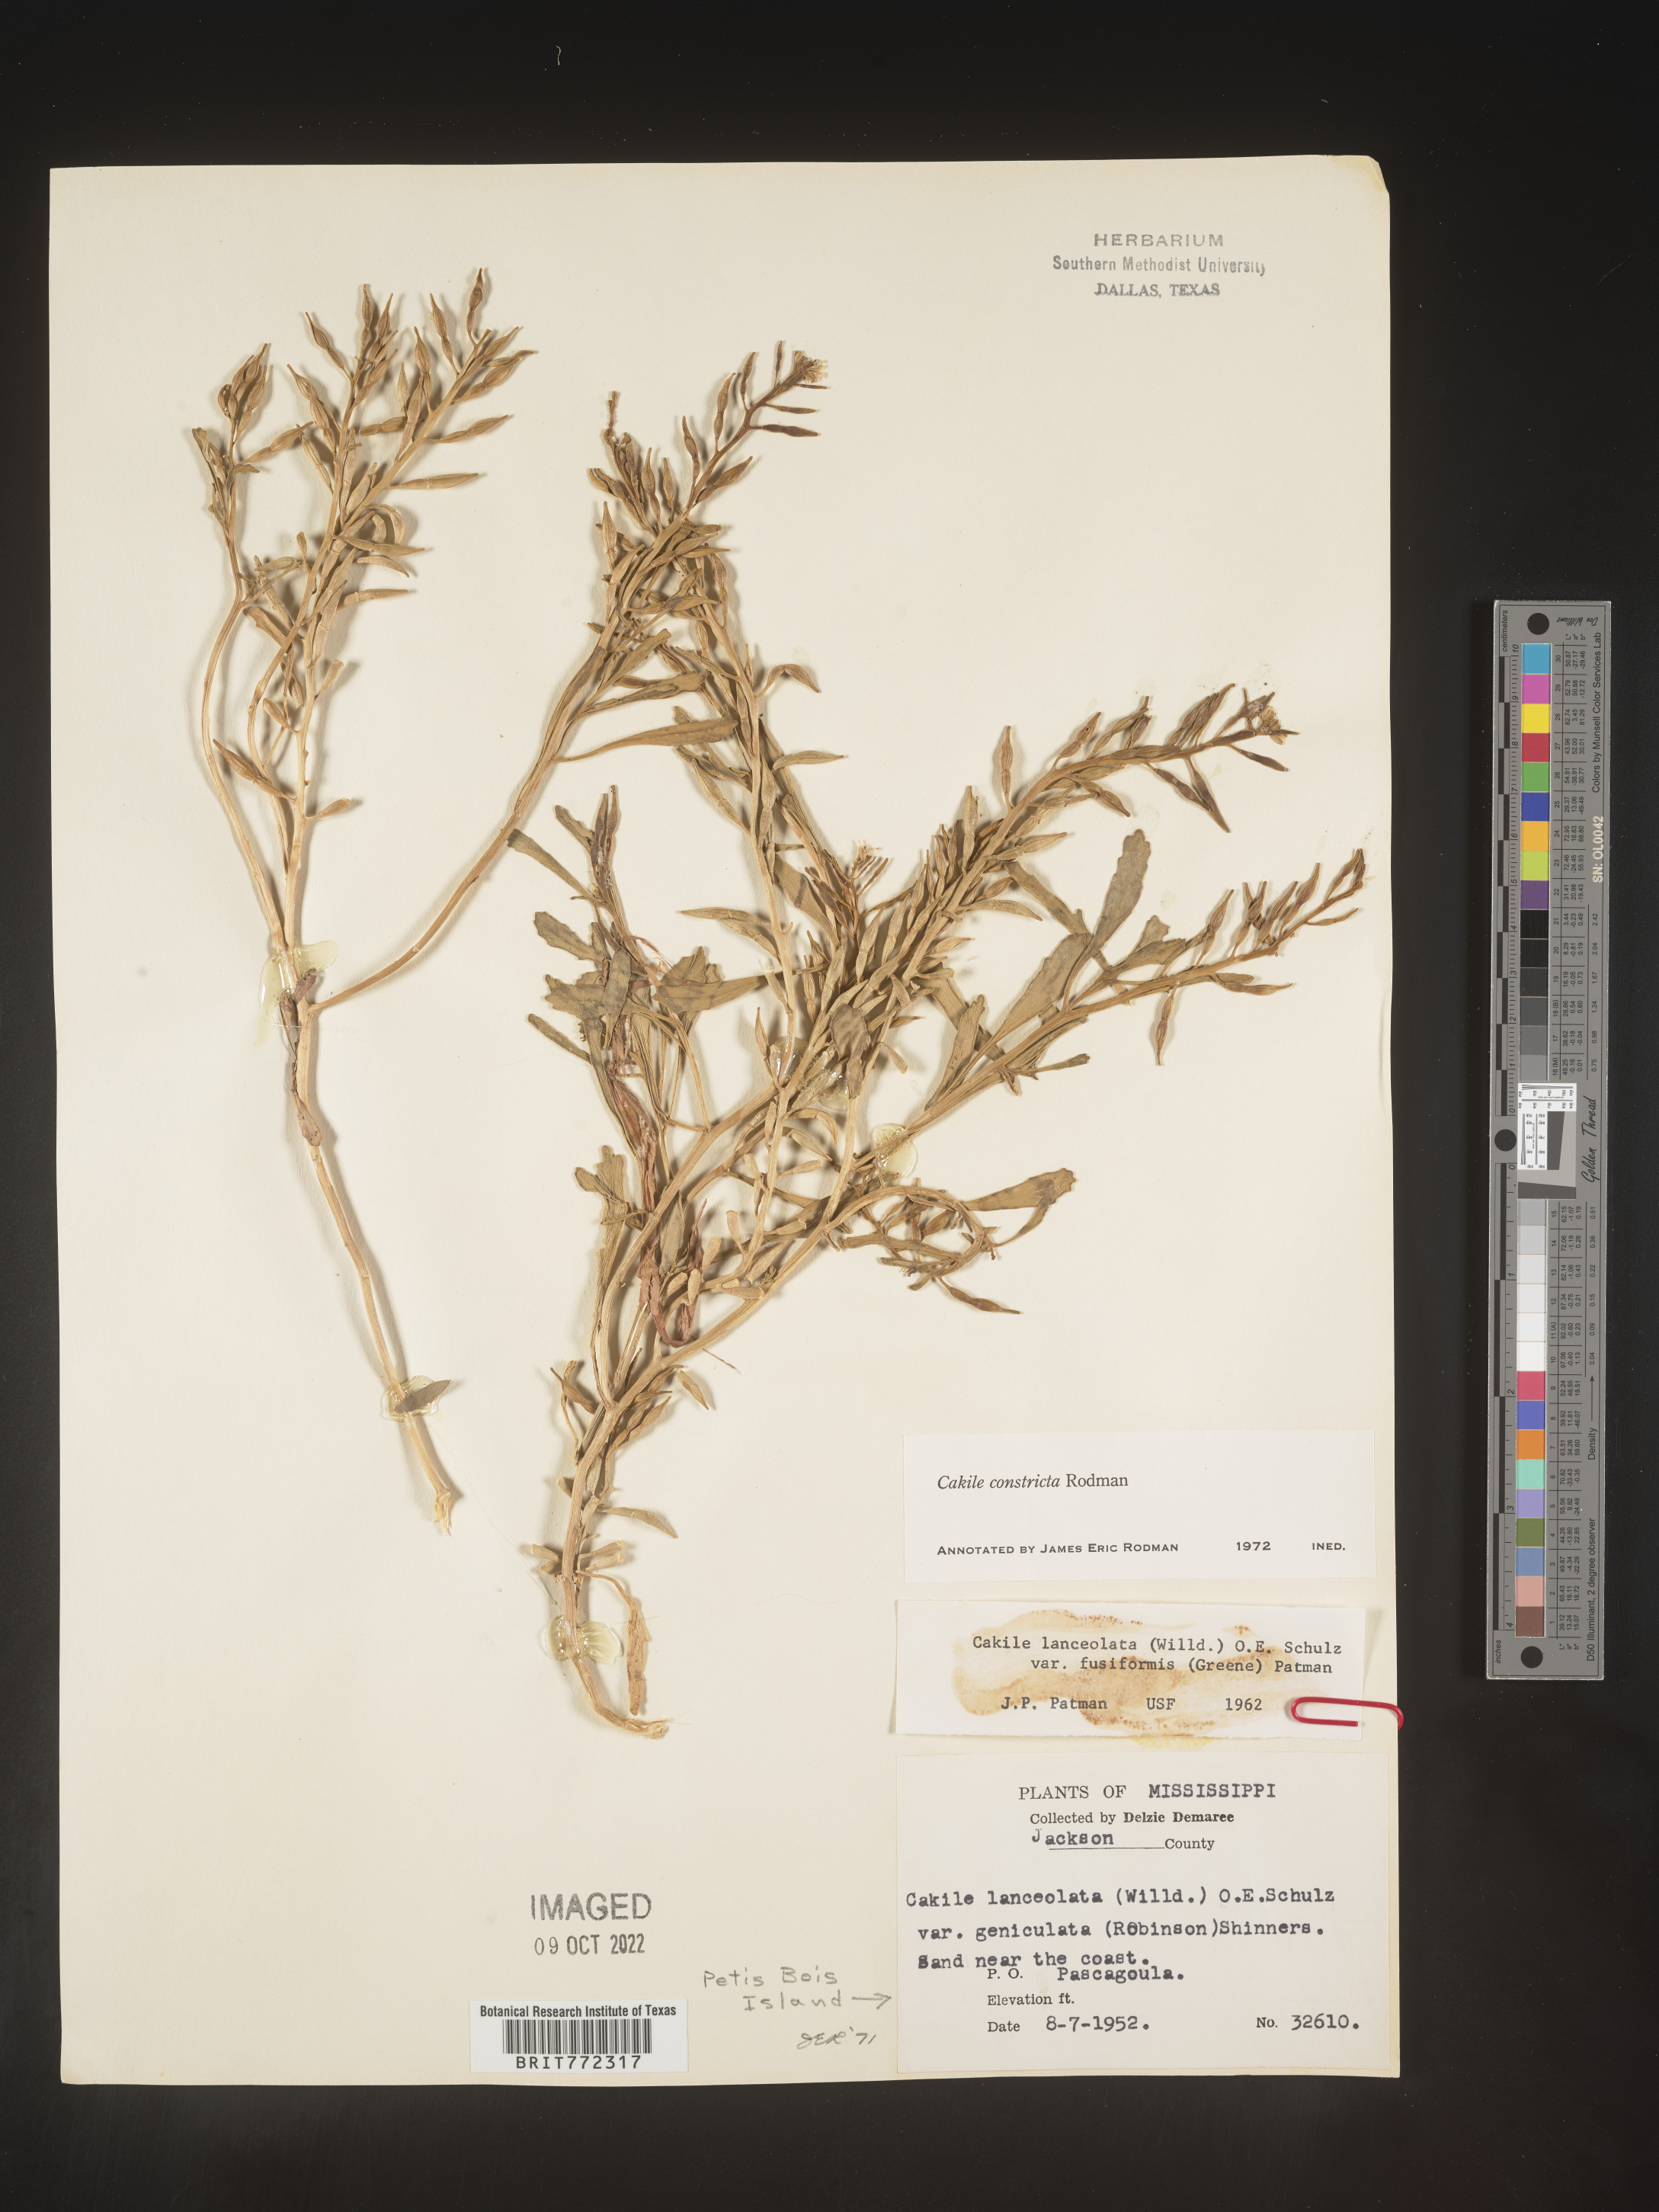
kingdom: Plantae
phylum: Tracheophyta
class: Magnoliopsida
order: Brassicales
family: Brassicaceae
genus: Cakile
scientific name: Cakile constricta
